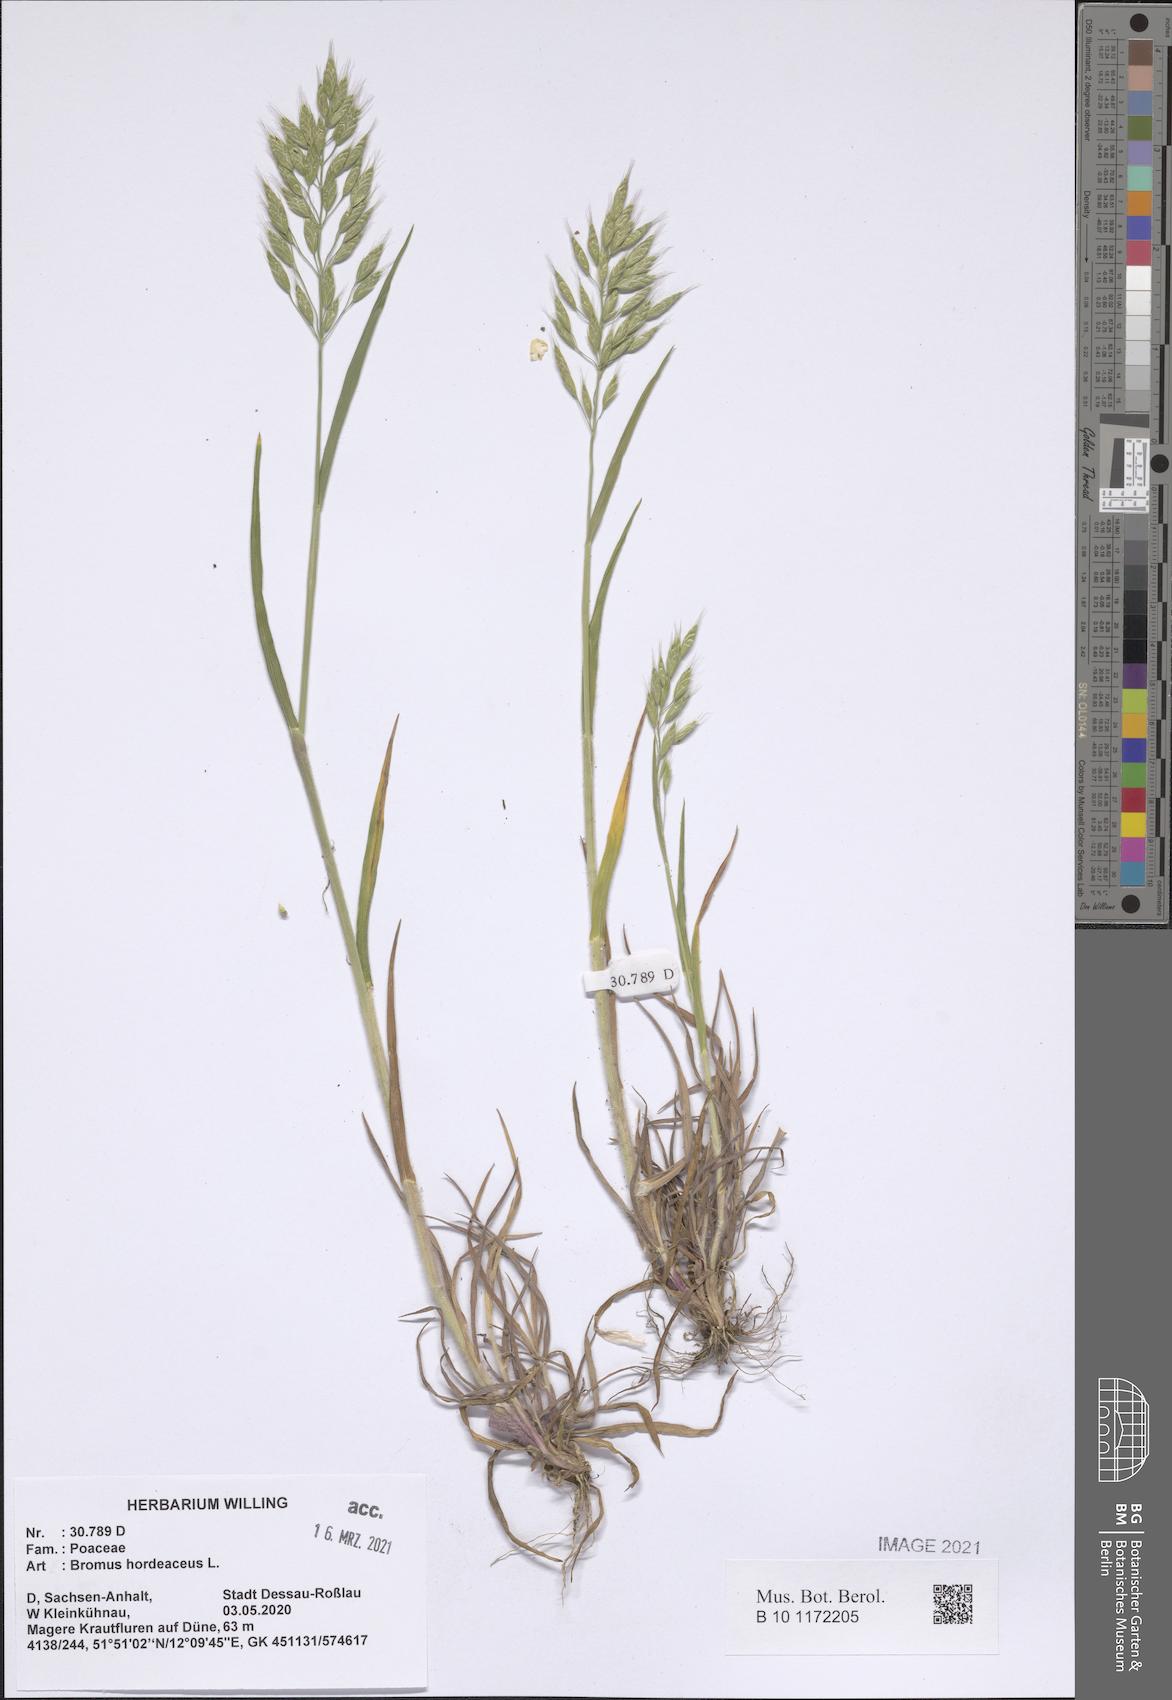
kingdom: Plantae
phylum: Tracheophyta
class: Liliopsida
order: Poales
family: Poaceae
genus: Bromus
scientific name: Bromus hordeaceus
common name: Soft brome
